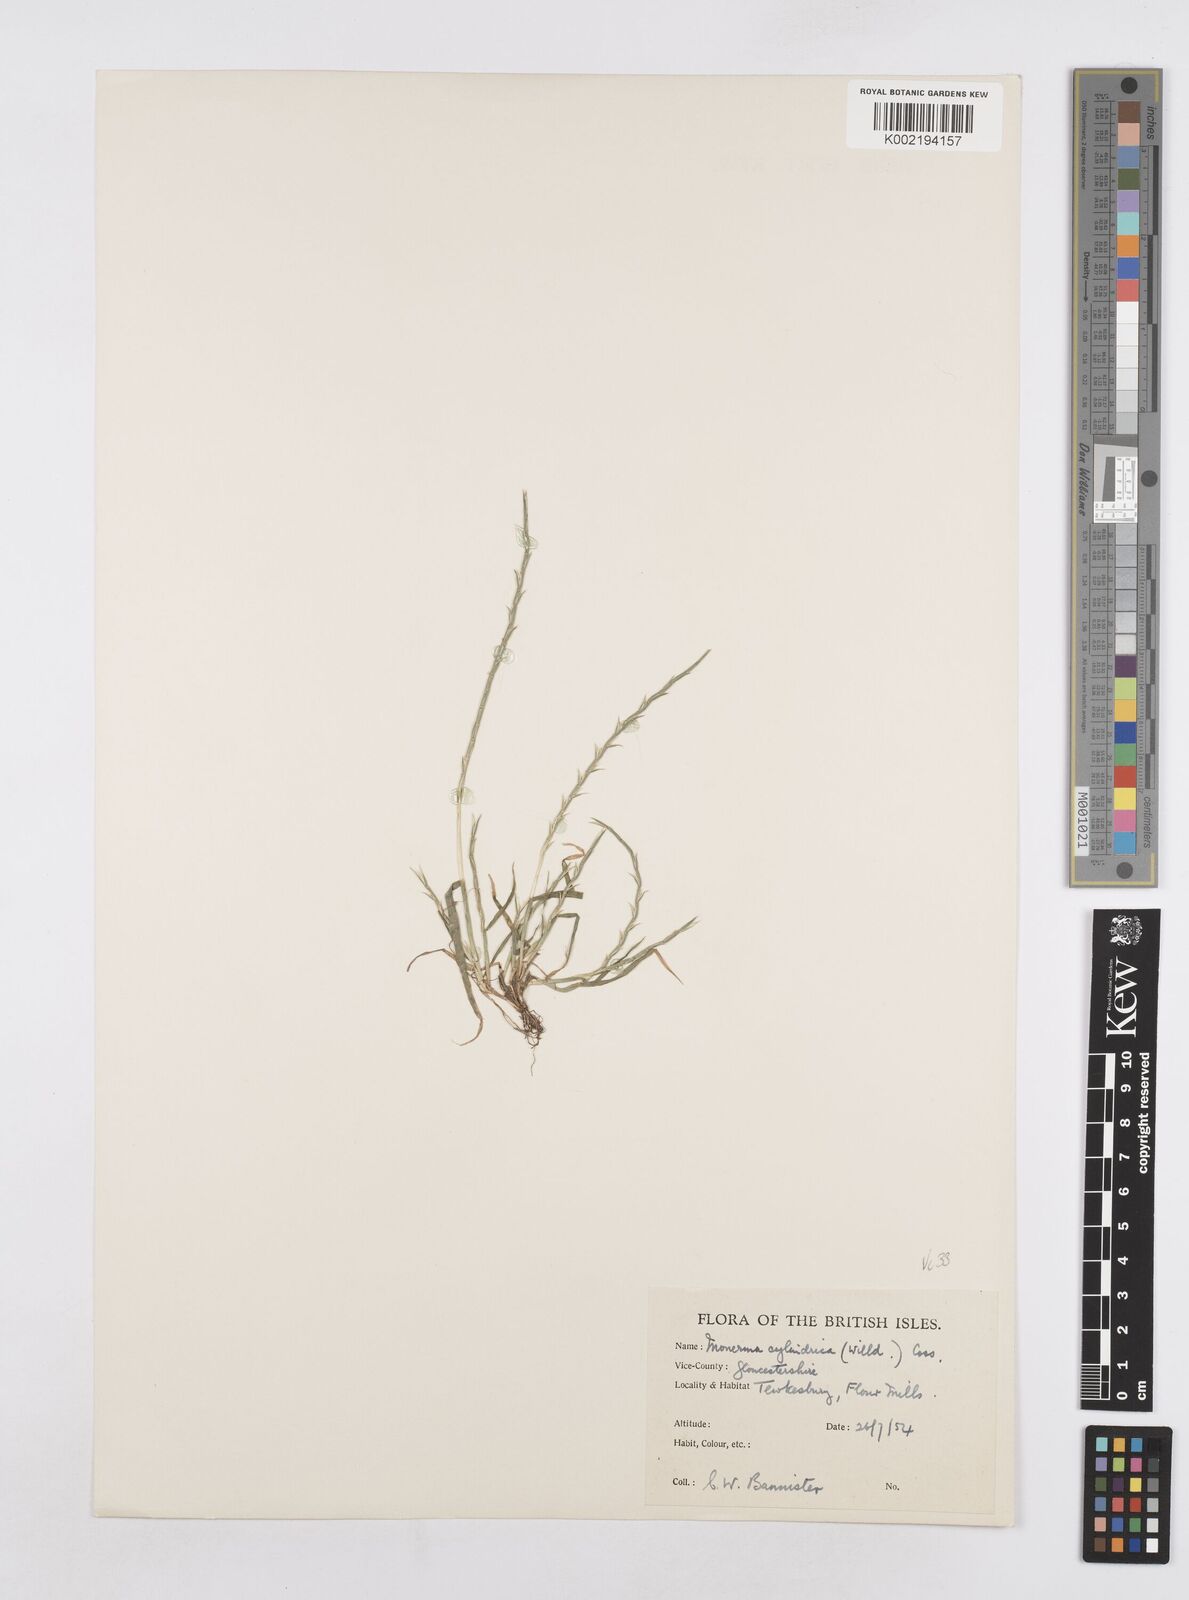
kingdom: Plantae
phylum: Tracheophyta
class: Liliopsida
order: Poales
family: Poaceae
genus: Parapholis
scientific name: Parapholis cylindrica
